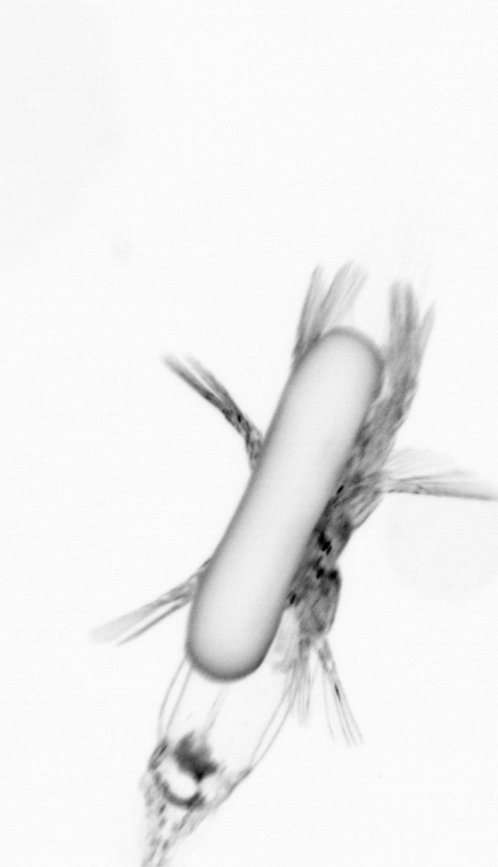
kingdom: Animalia
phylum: Arthropoda
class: Copepoda
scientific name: Copepoda
